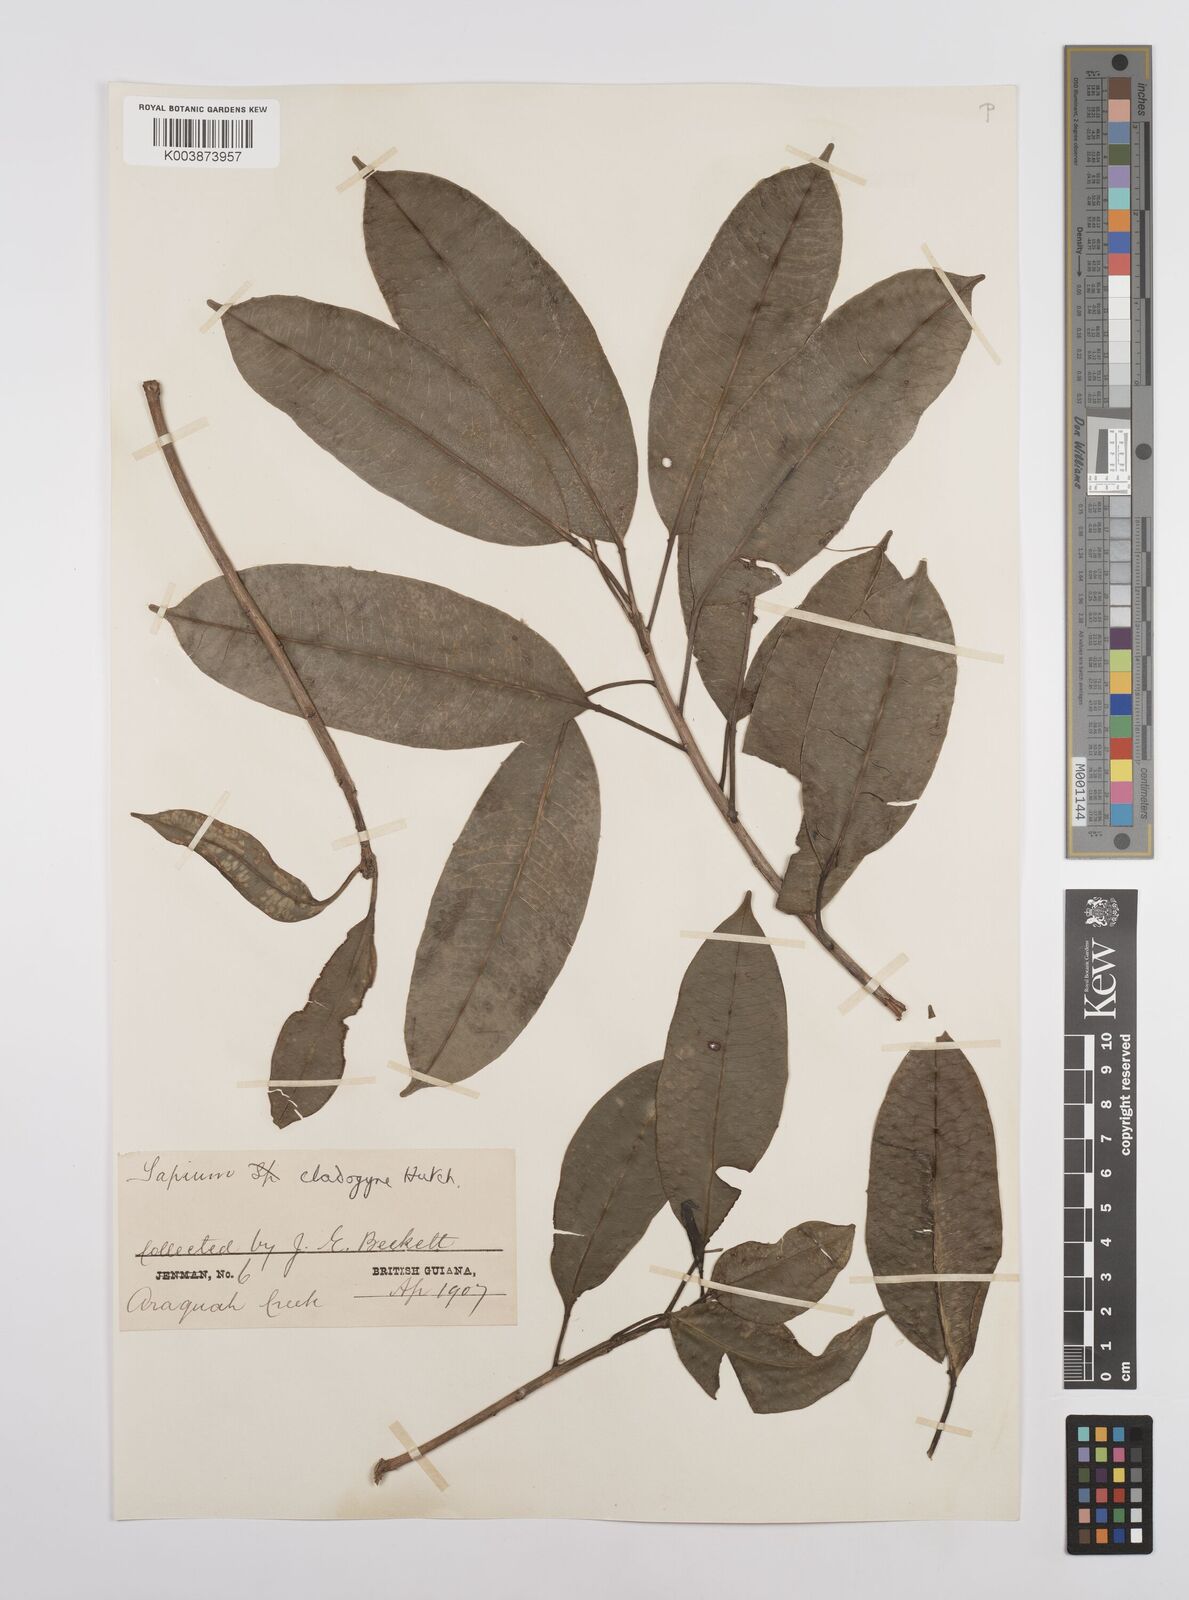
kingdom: Plantae
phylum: Tracheophyta
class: Magnoliopsida
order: Malpighiales
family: Euphorbiaceae
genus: Sapium
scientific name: Sapium jenmannii
